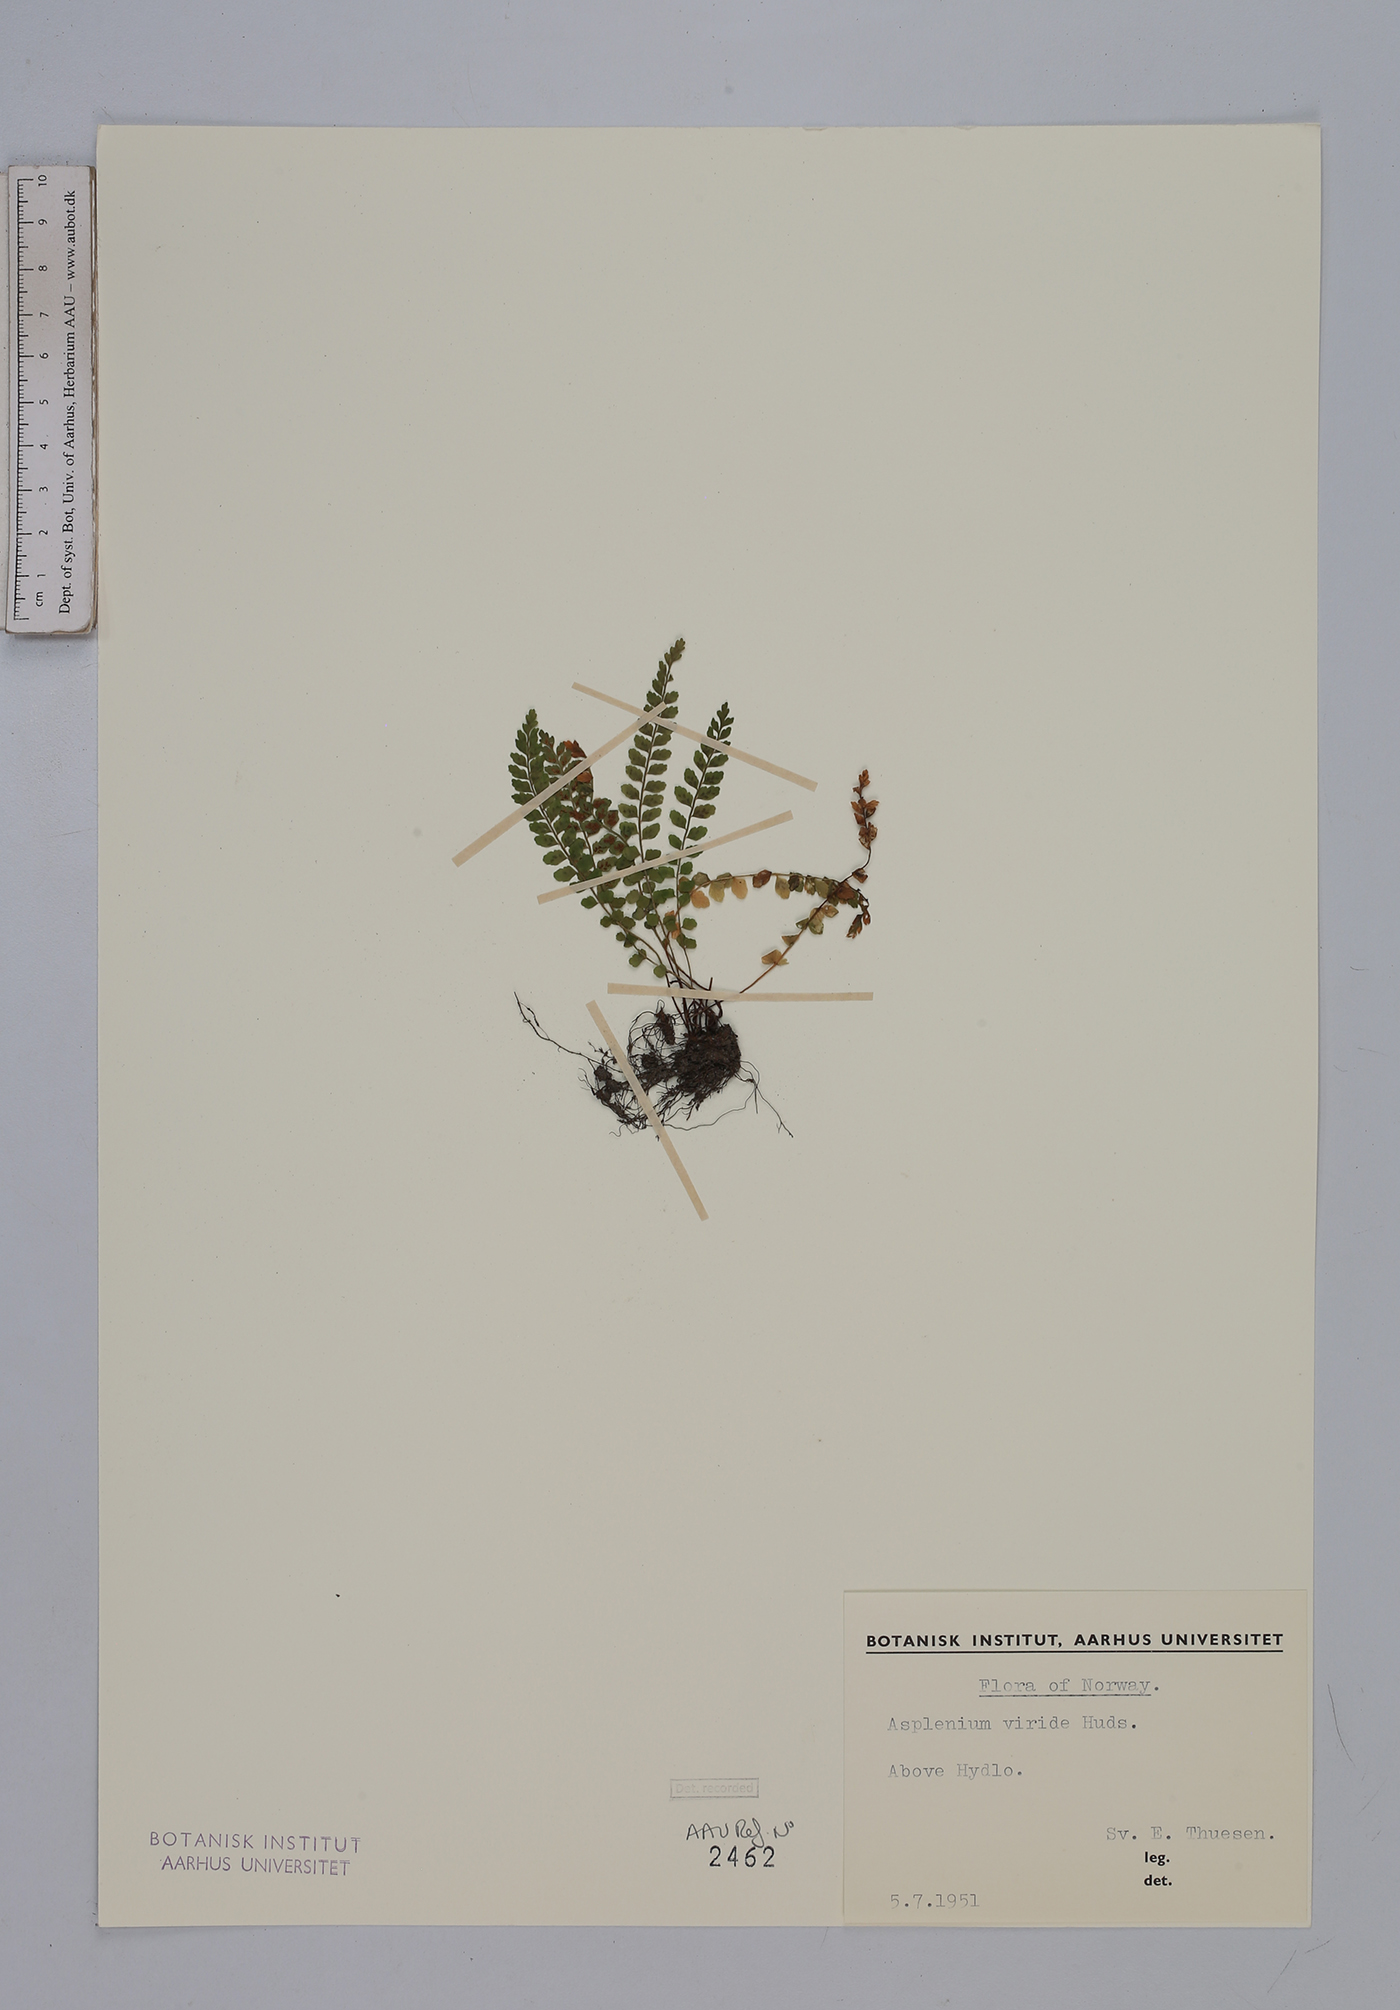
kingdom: Plantae
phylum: Tracheophyta
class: Polypodiopsida
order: Polypodiales
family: Aspleniaceae
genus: Asplenium
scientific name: Asplenium viride
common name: Green spleenwort
